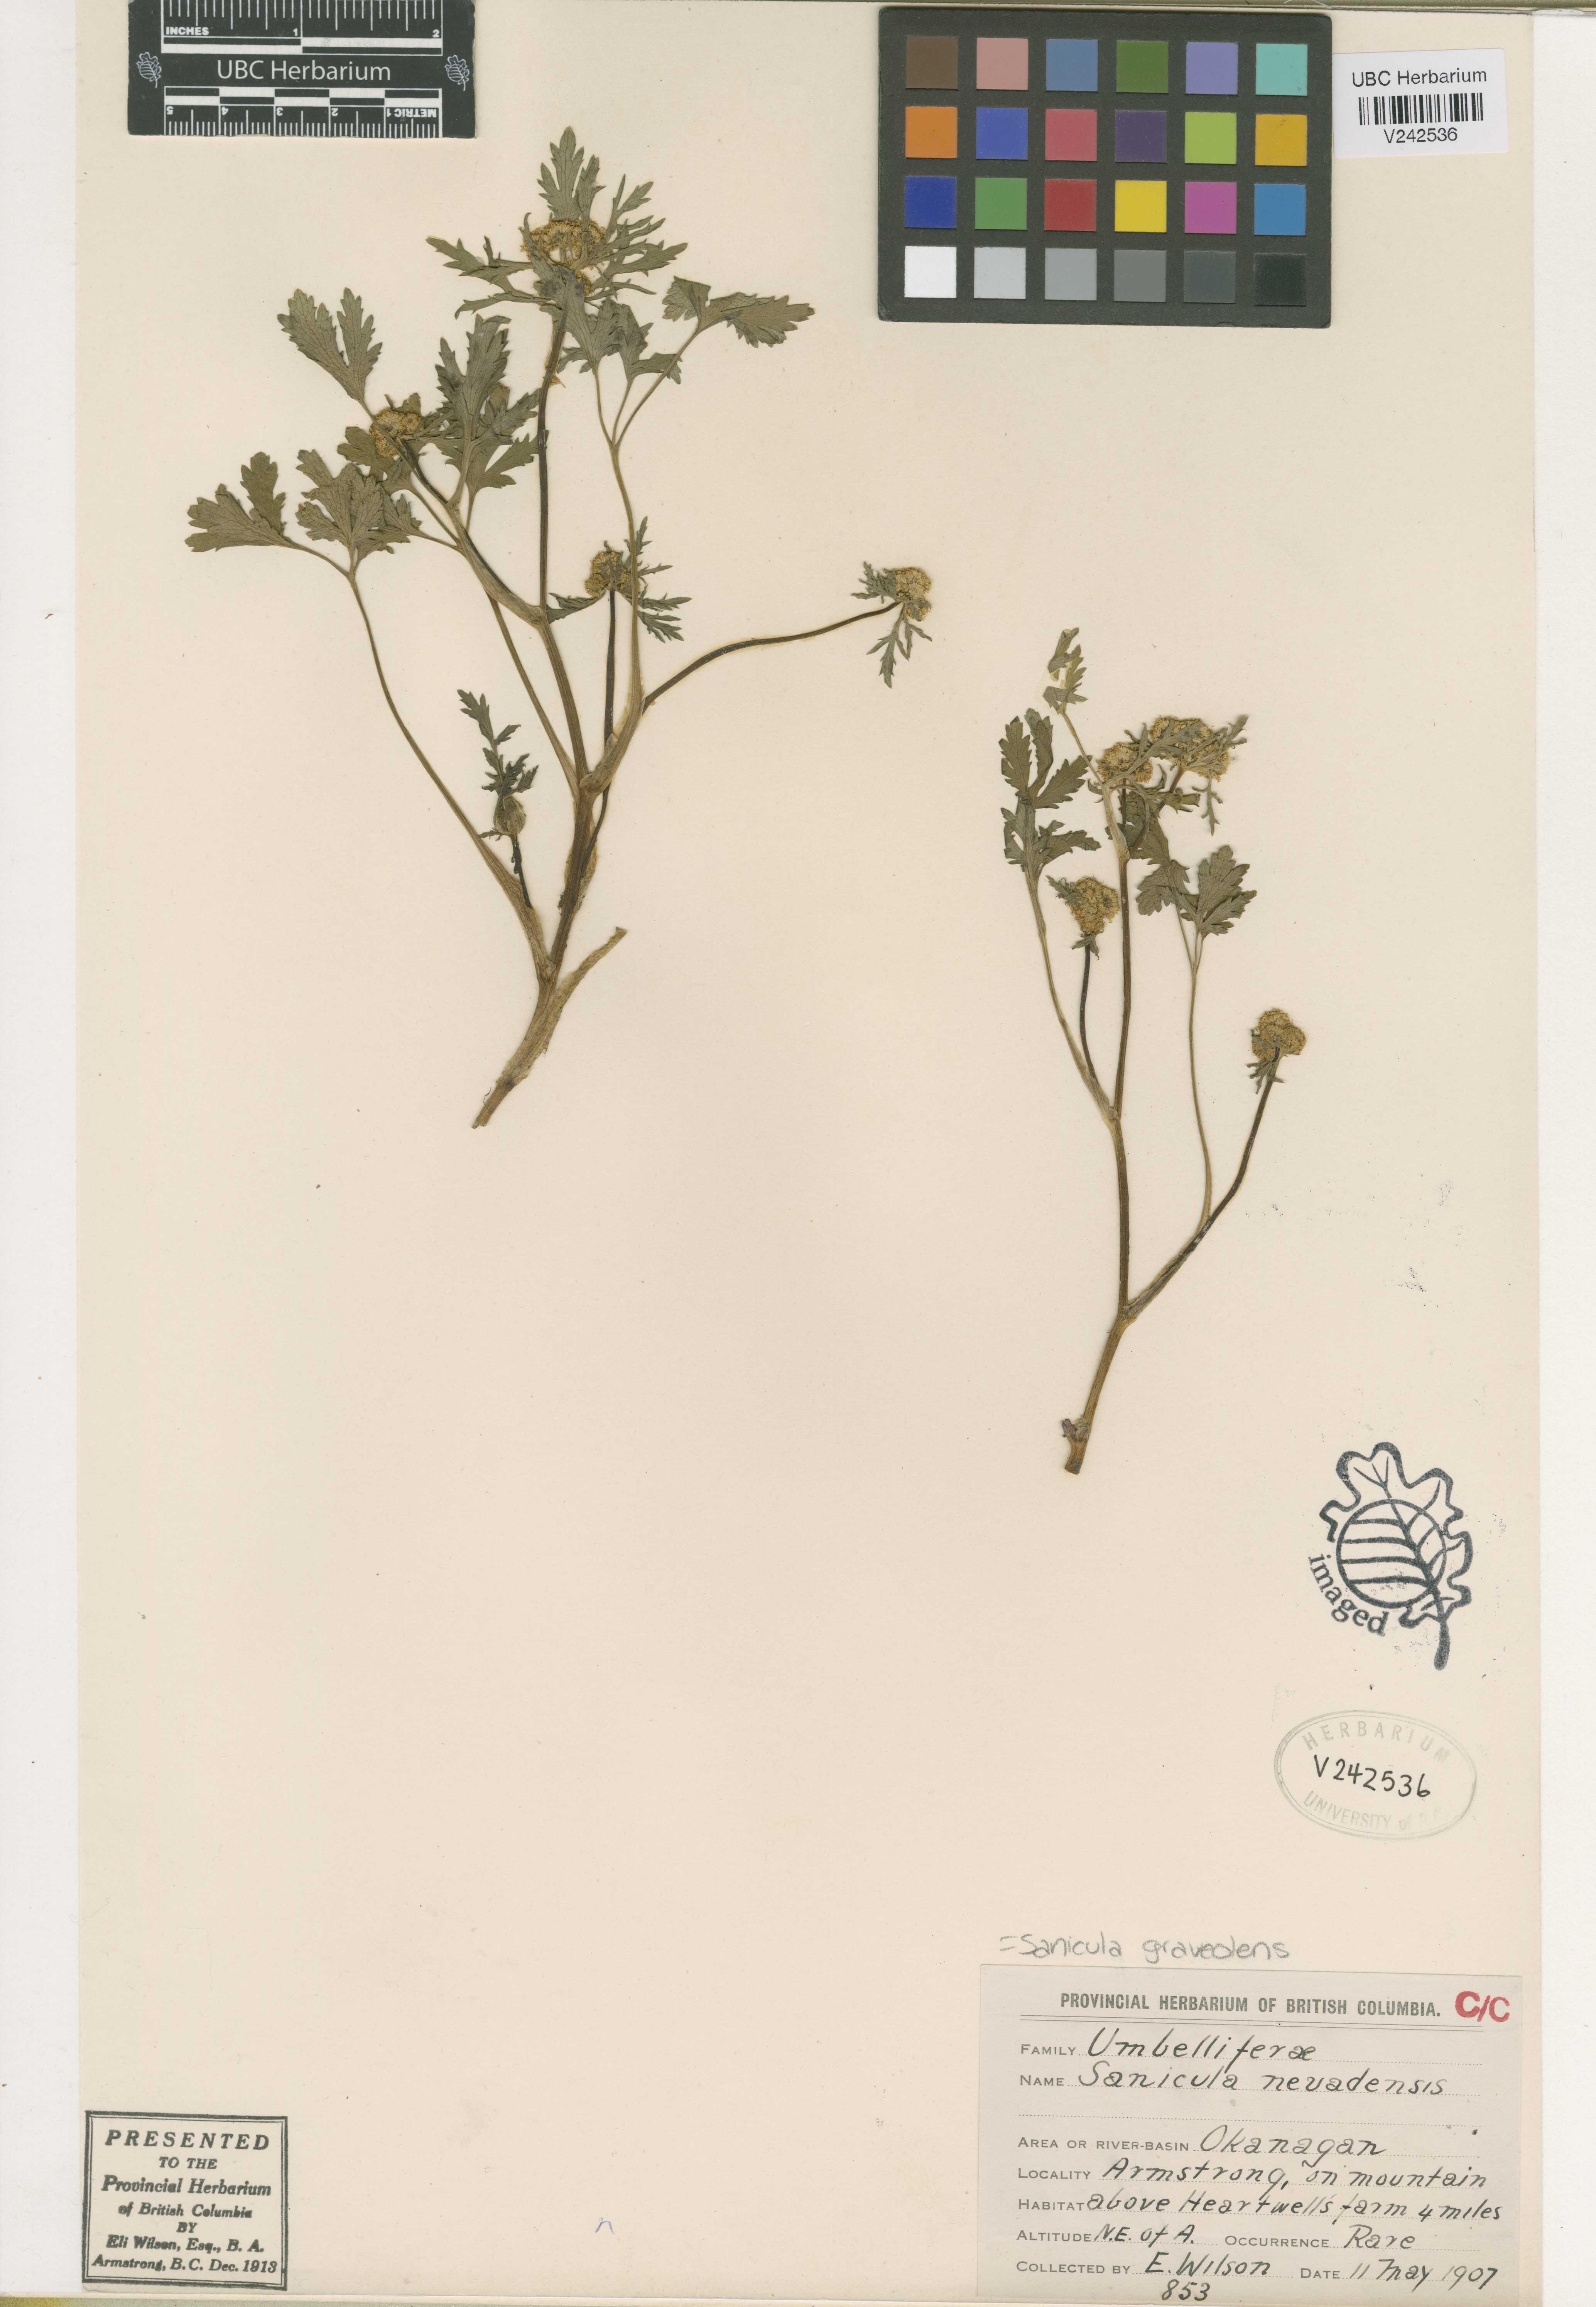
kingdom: Plantae
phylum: Tracheophyta
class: Magnoliopsida
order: Apiales
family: Apiaceae
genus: Sanicula
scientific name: Sanicula graveolens
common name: Sierra sanicle
